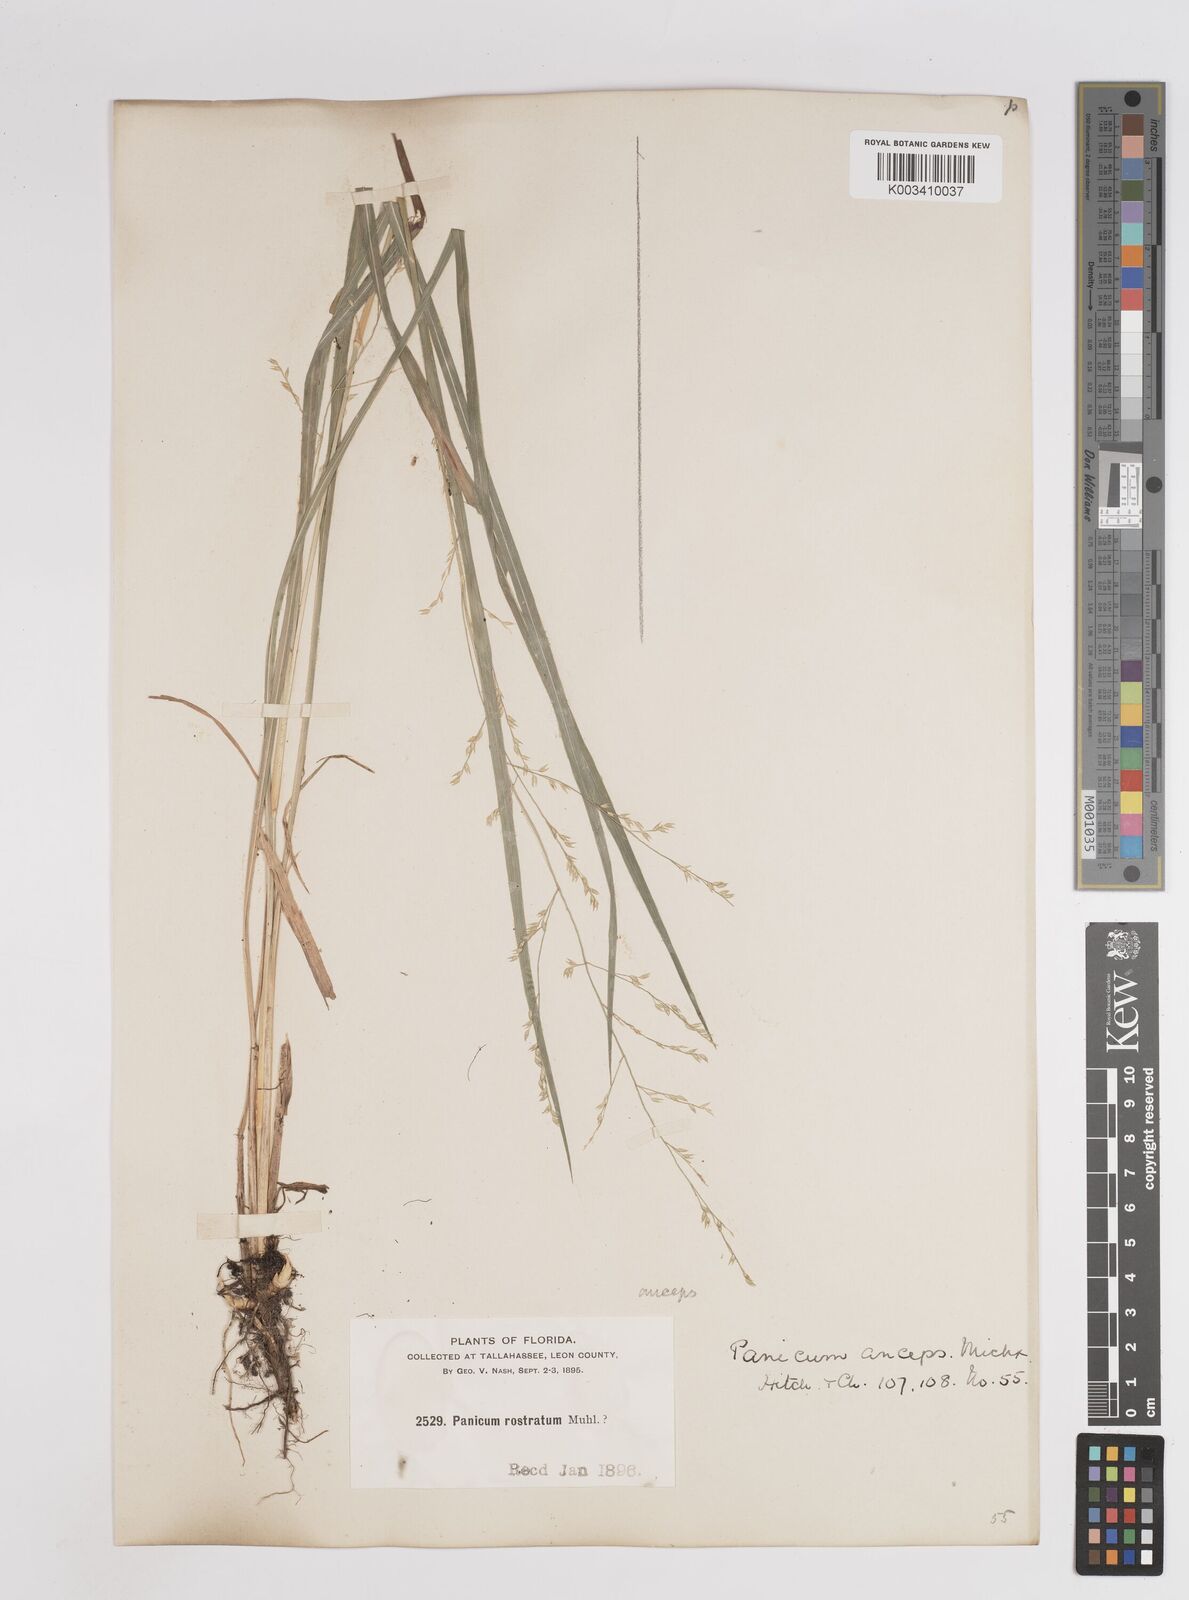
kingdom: Plantae
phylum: Tracheophyta
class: Liliopsida
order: Poales
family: Poaceae
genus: Coleataenia
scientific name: Coleataenia anceps
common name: Beaked panic grass
